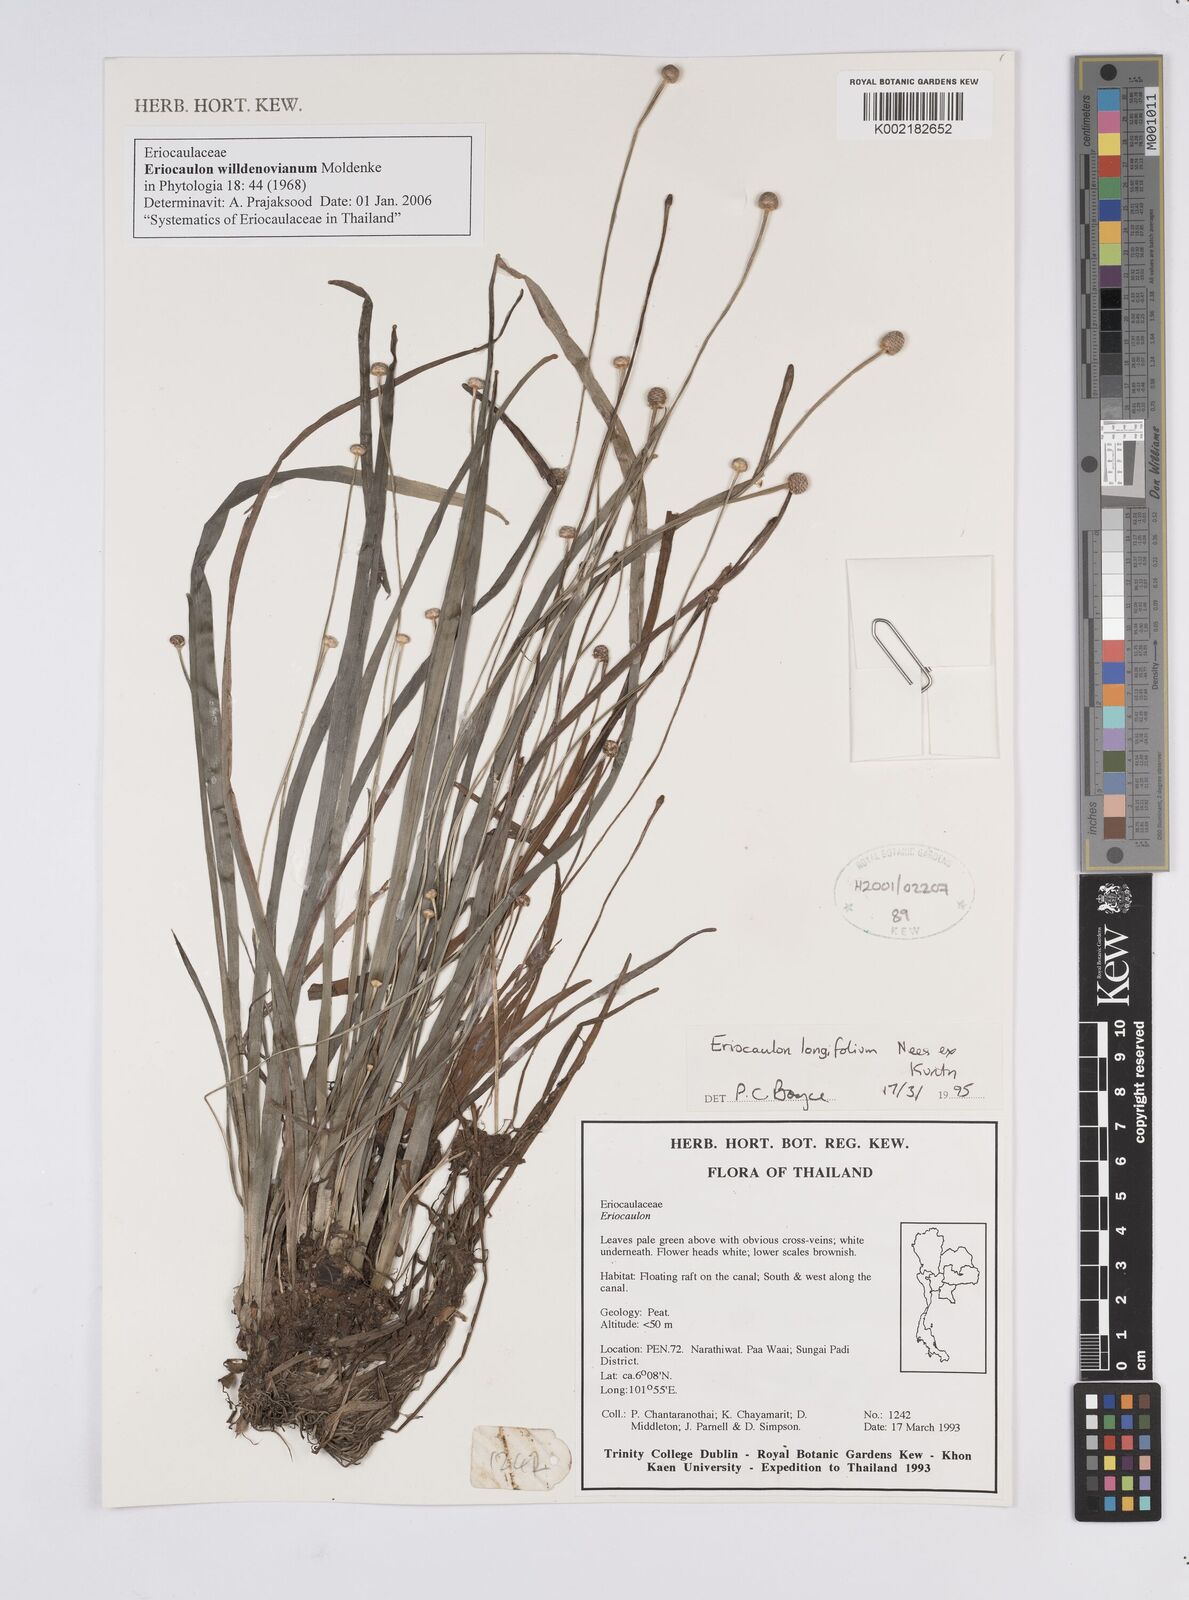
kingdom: Plantae
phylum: Tracheophyta
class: Liliopsida
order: Poales
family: Eriocaulaceae
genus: Eriocaulon
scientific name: Eriocaulon willdenovianum
